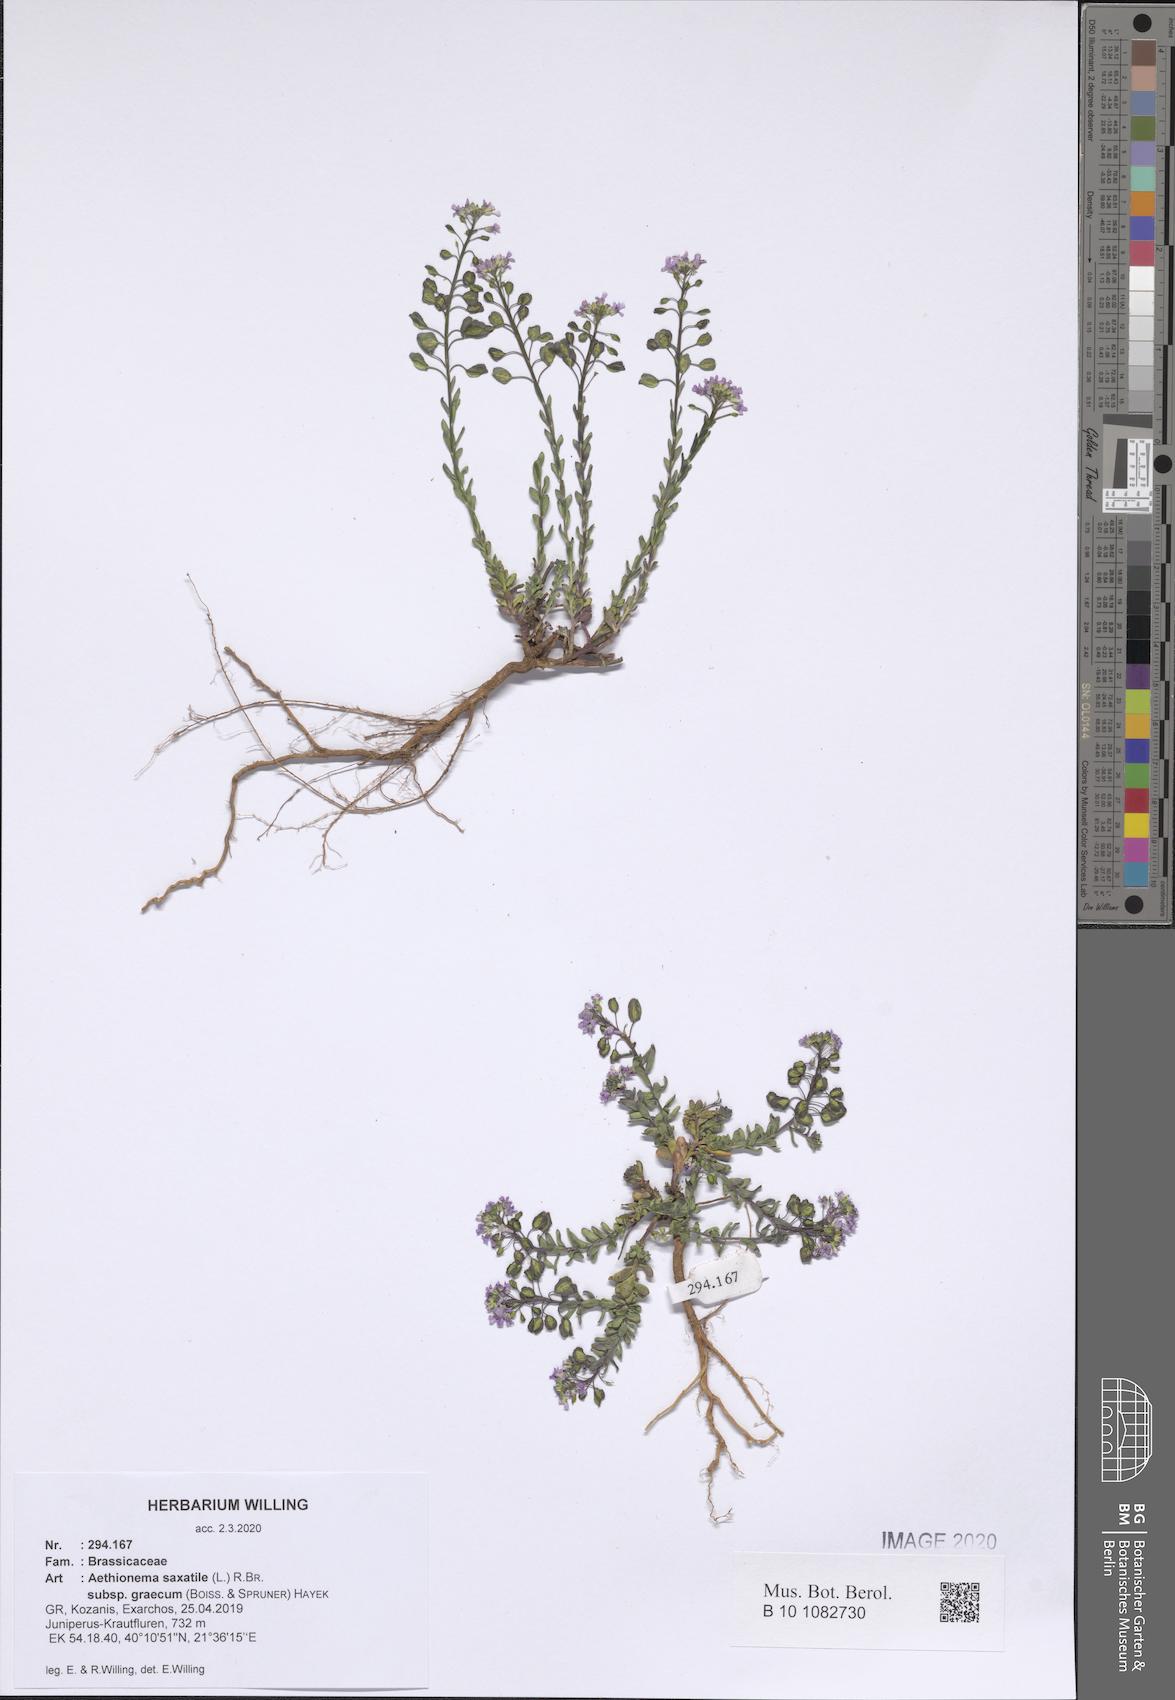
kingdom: Plantae
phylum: Tracheophyta
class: Magnoliopsida
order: Brassicales
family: Brassicaceae
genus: Aethionema
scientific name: Aethionema saxatile
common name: Burnt candytuft
